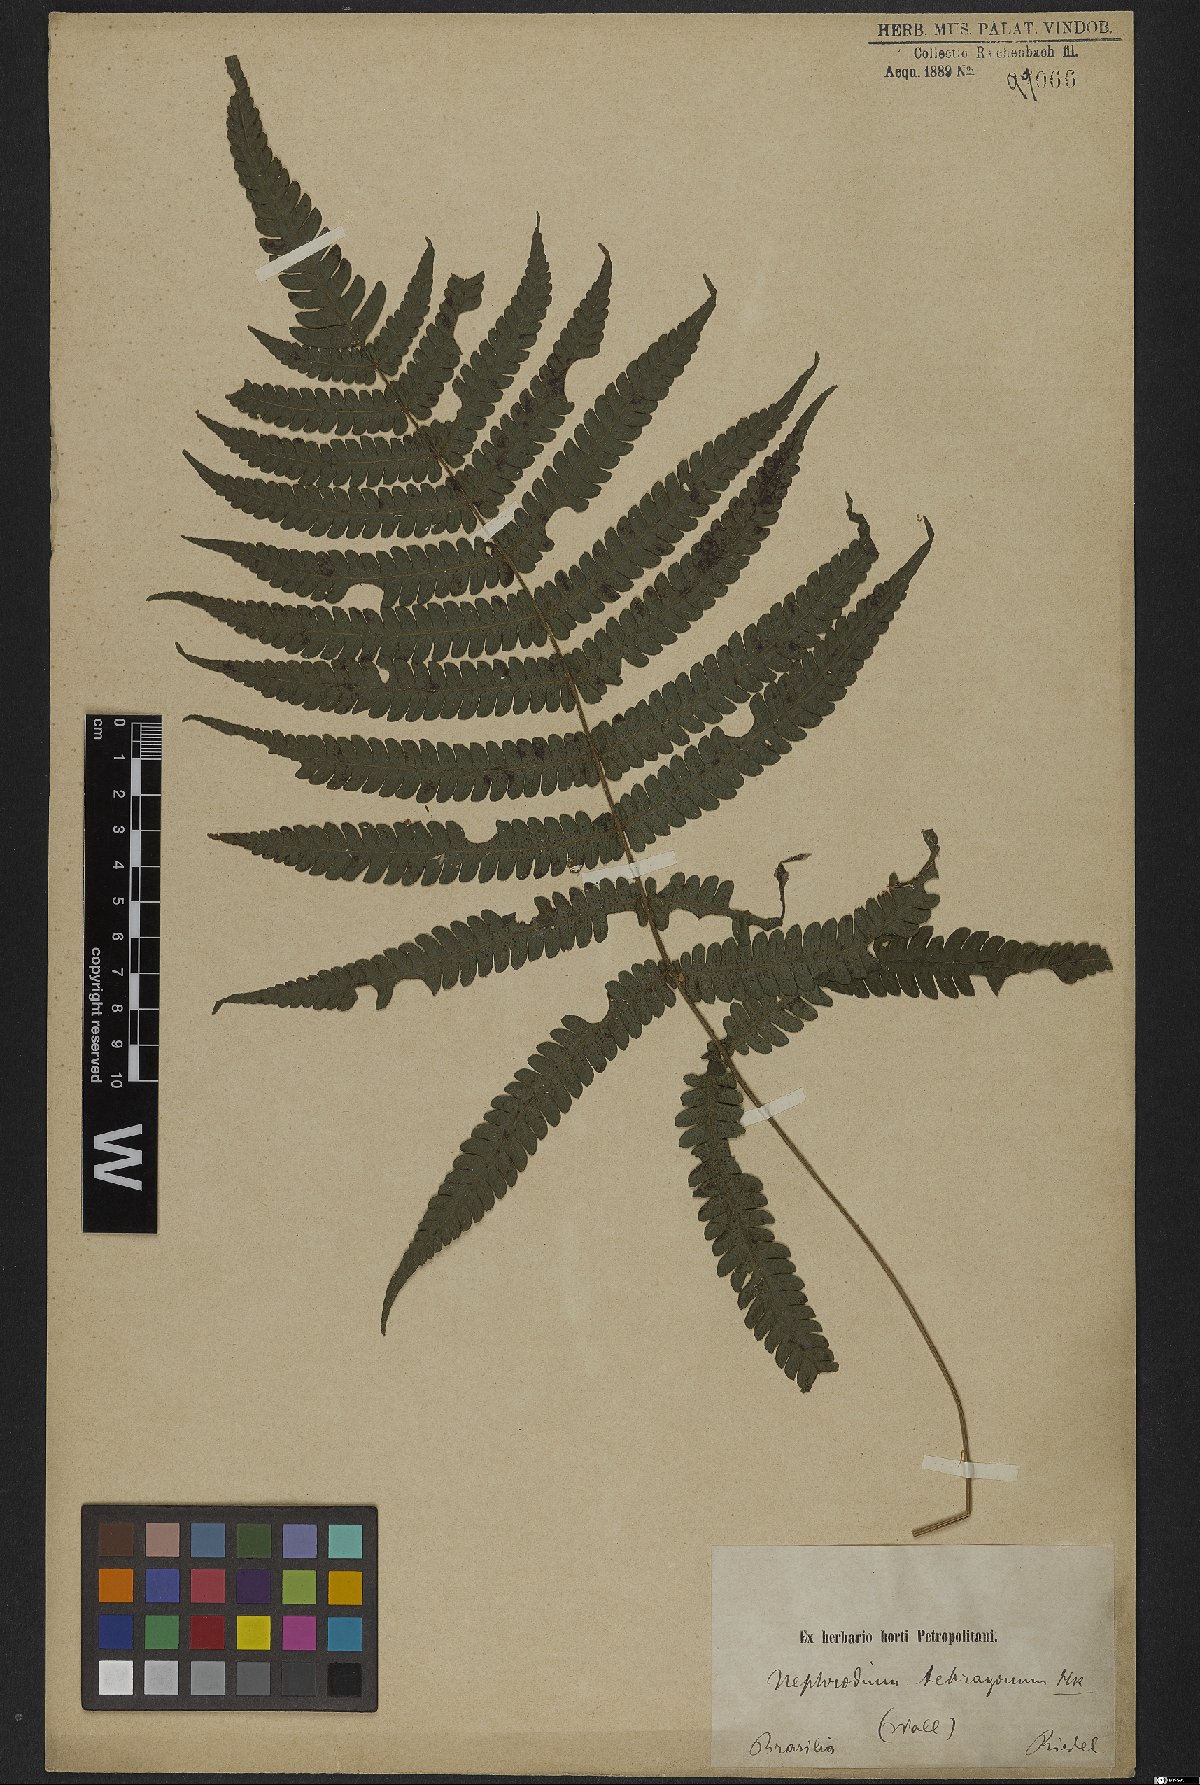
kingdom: Plantae
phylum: Tracheophyta
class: Polypodiopsida
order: Polypodiales
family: Thelypteridaceae
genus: Goniopteris
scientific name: Goniopteris lugubris
